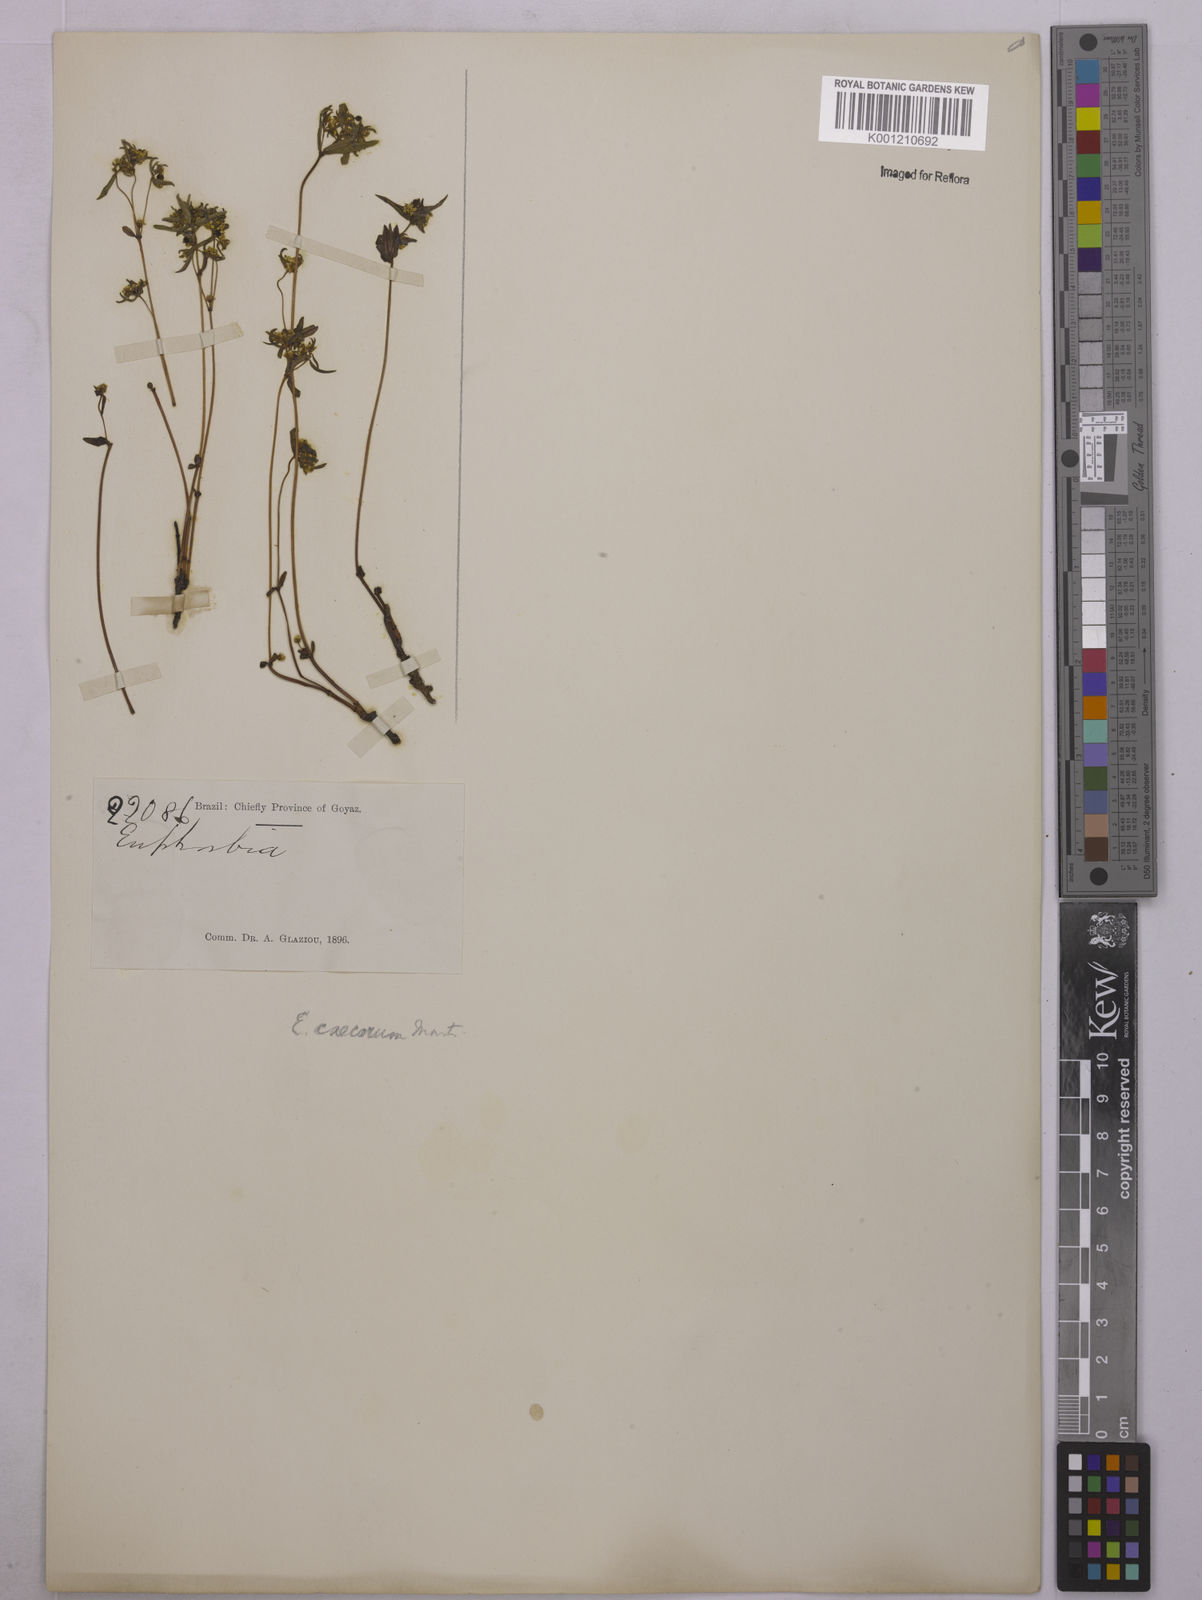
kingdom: Plantae
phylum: Tracheophyta
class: Magnoliopsida
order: Malpighiales
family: Euphorbiaceae
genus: Euphorbia
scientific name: Euphorbia potentilloides
